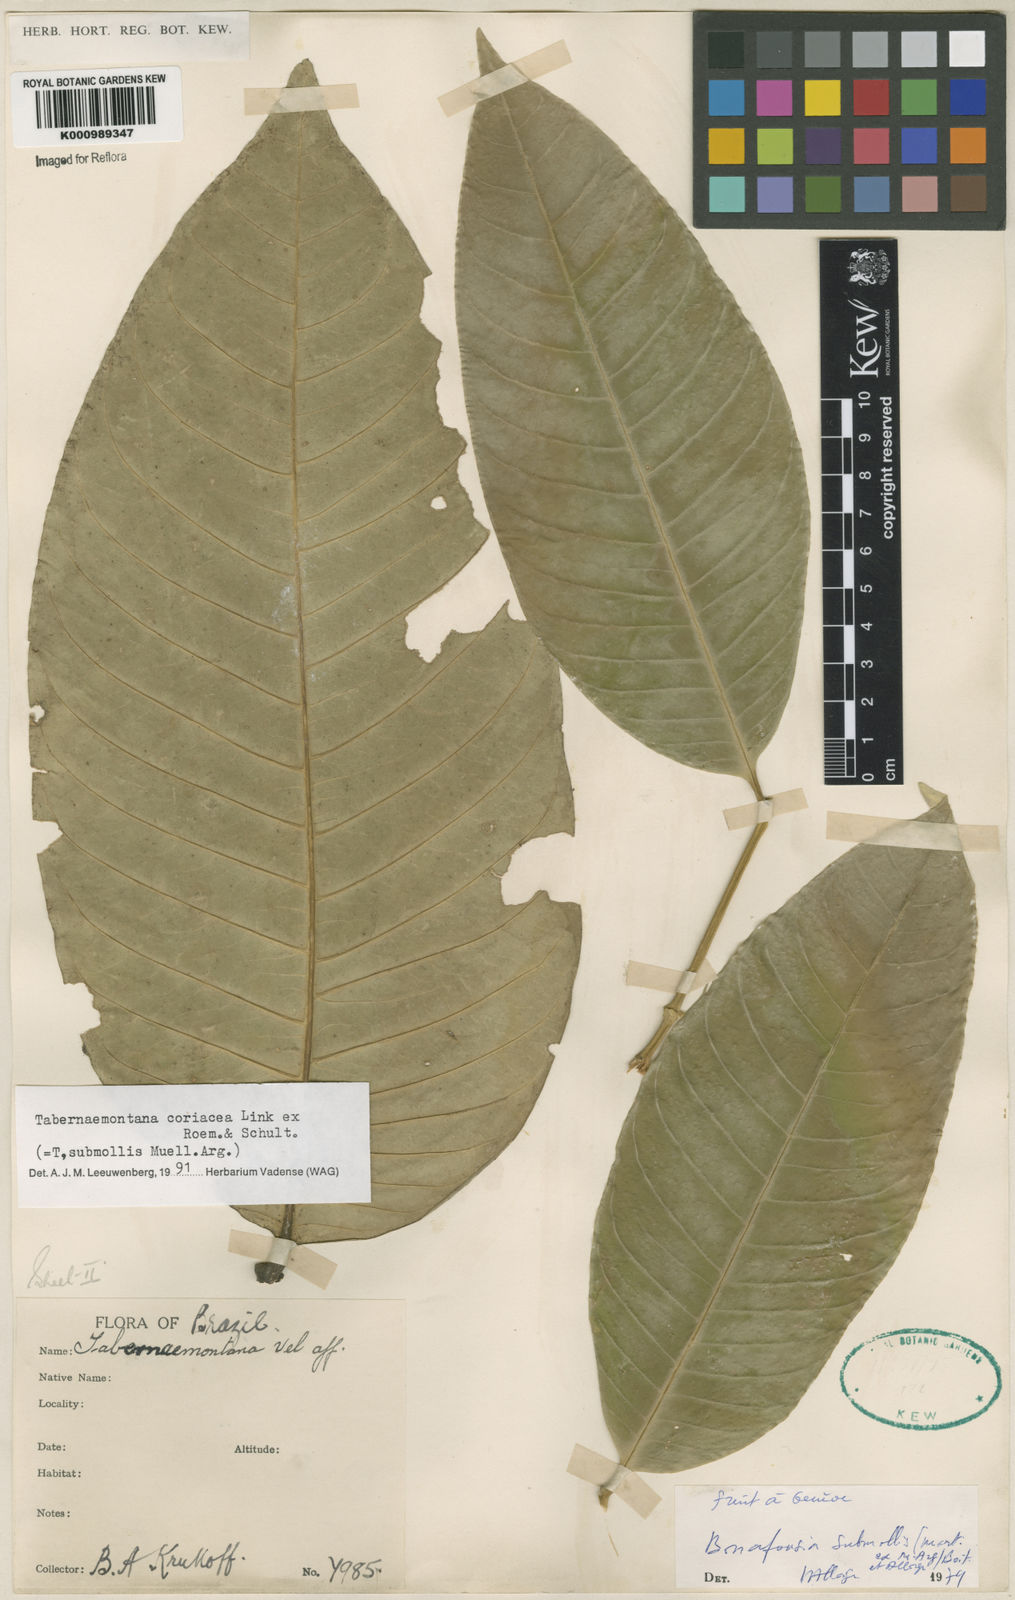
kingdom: Plantae
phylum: Tracheophyta
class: Magnoliopsida
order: Gentianales
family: Apocynaceae
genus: Tabernaemontana
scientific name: Tabernaemontana coriacea
